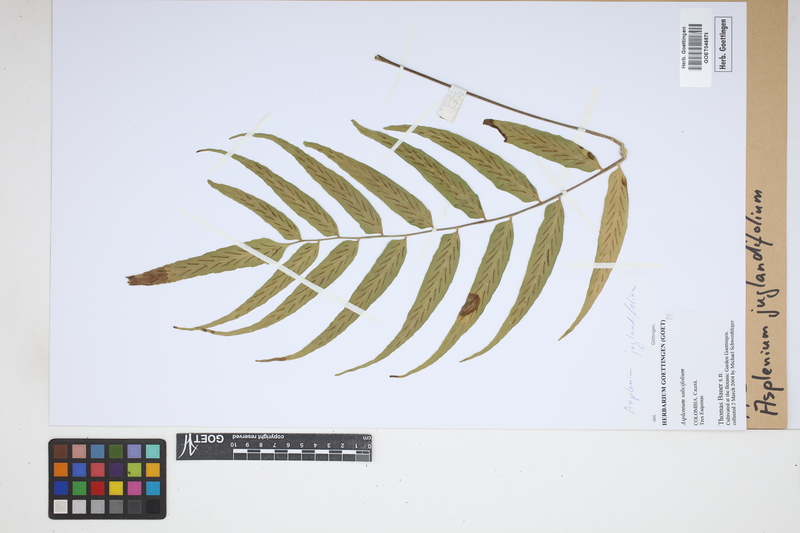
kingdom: Plantae
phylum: Tracheophyta
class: Polypodiopsida
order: Polypodiales
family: Aspleniaceae
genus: Asplenium
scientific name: Asplenium juglandifolium
